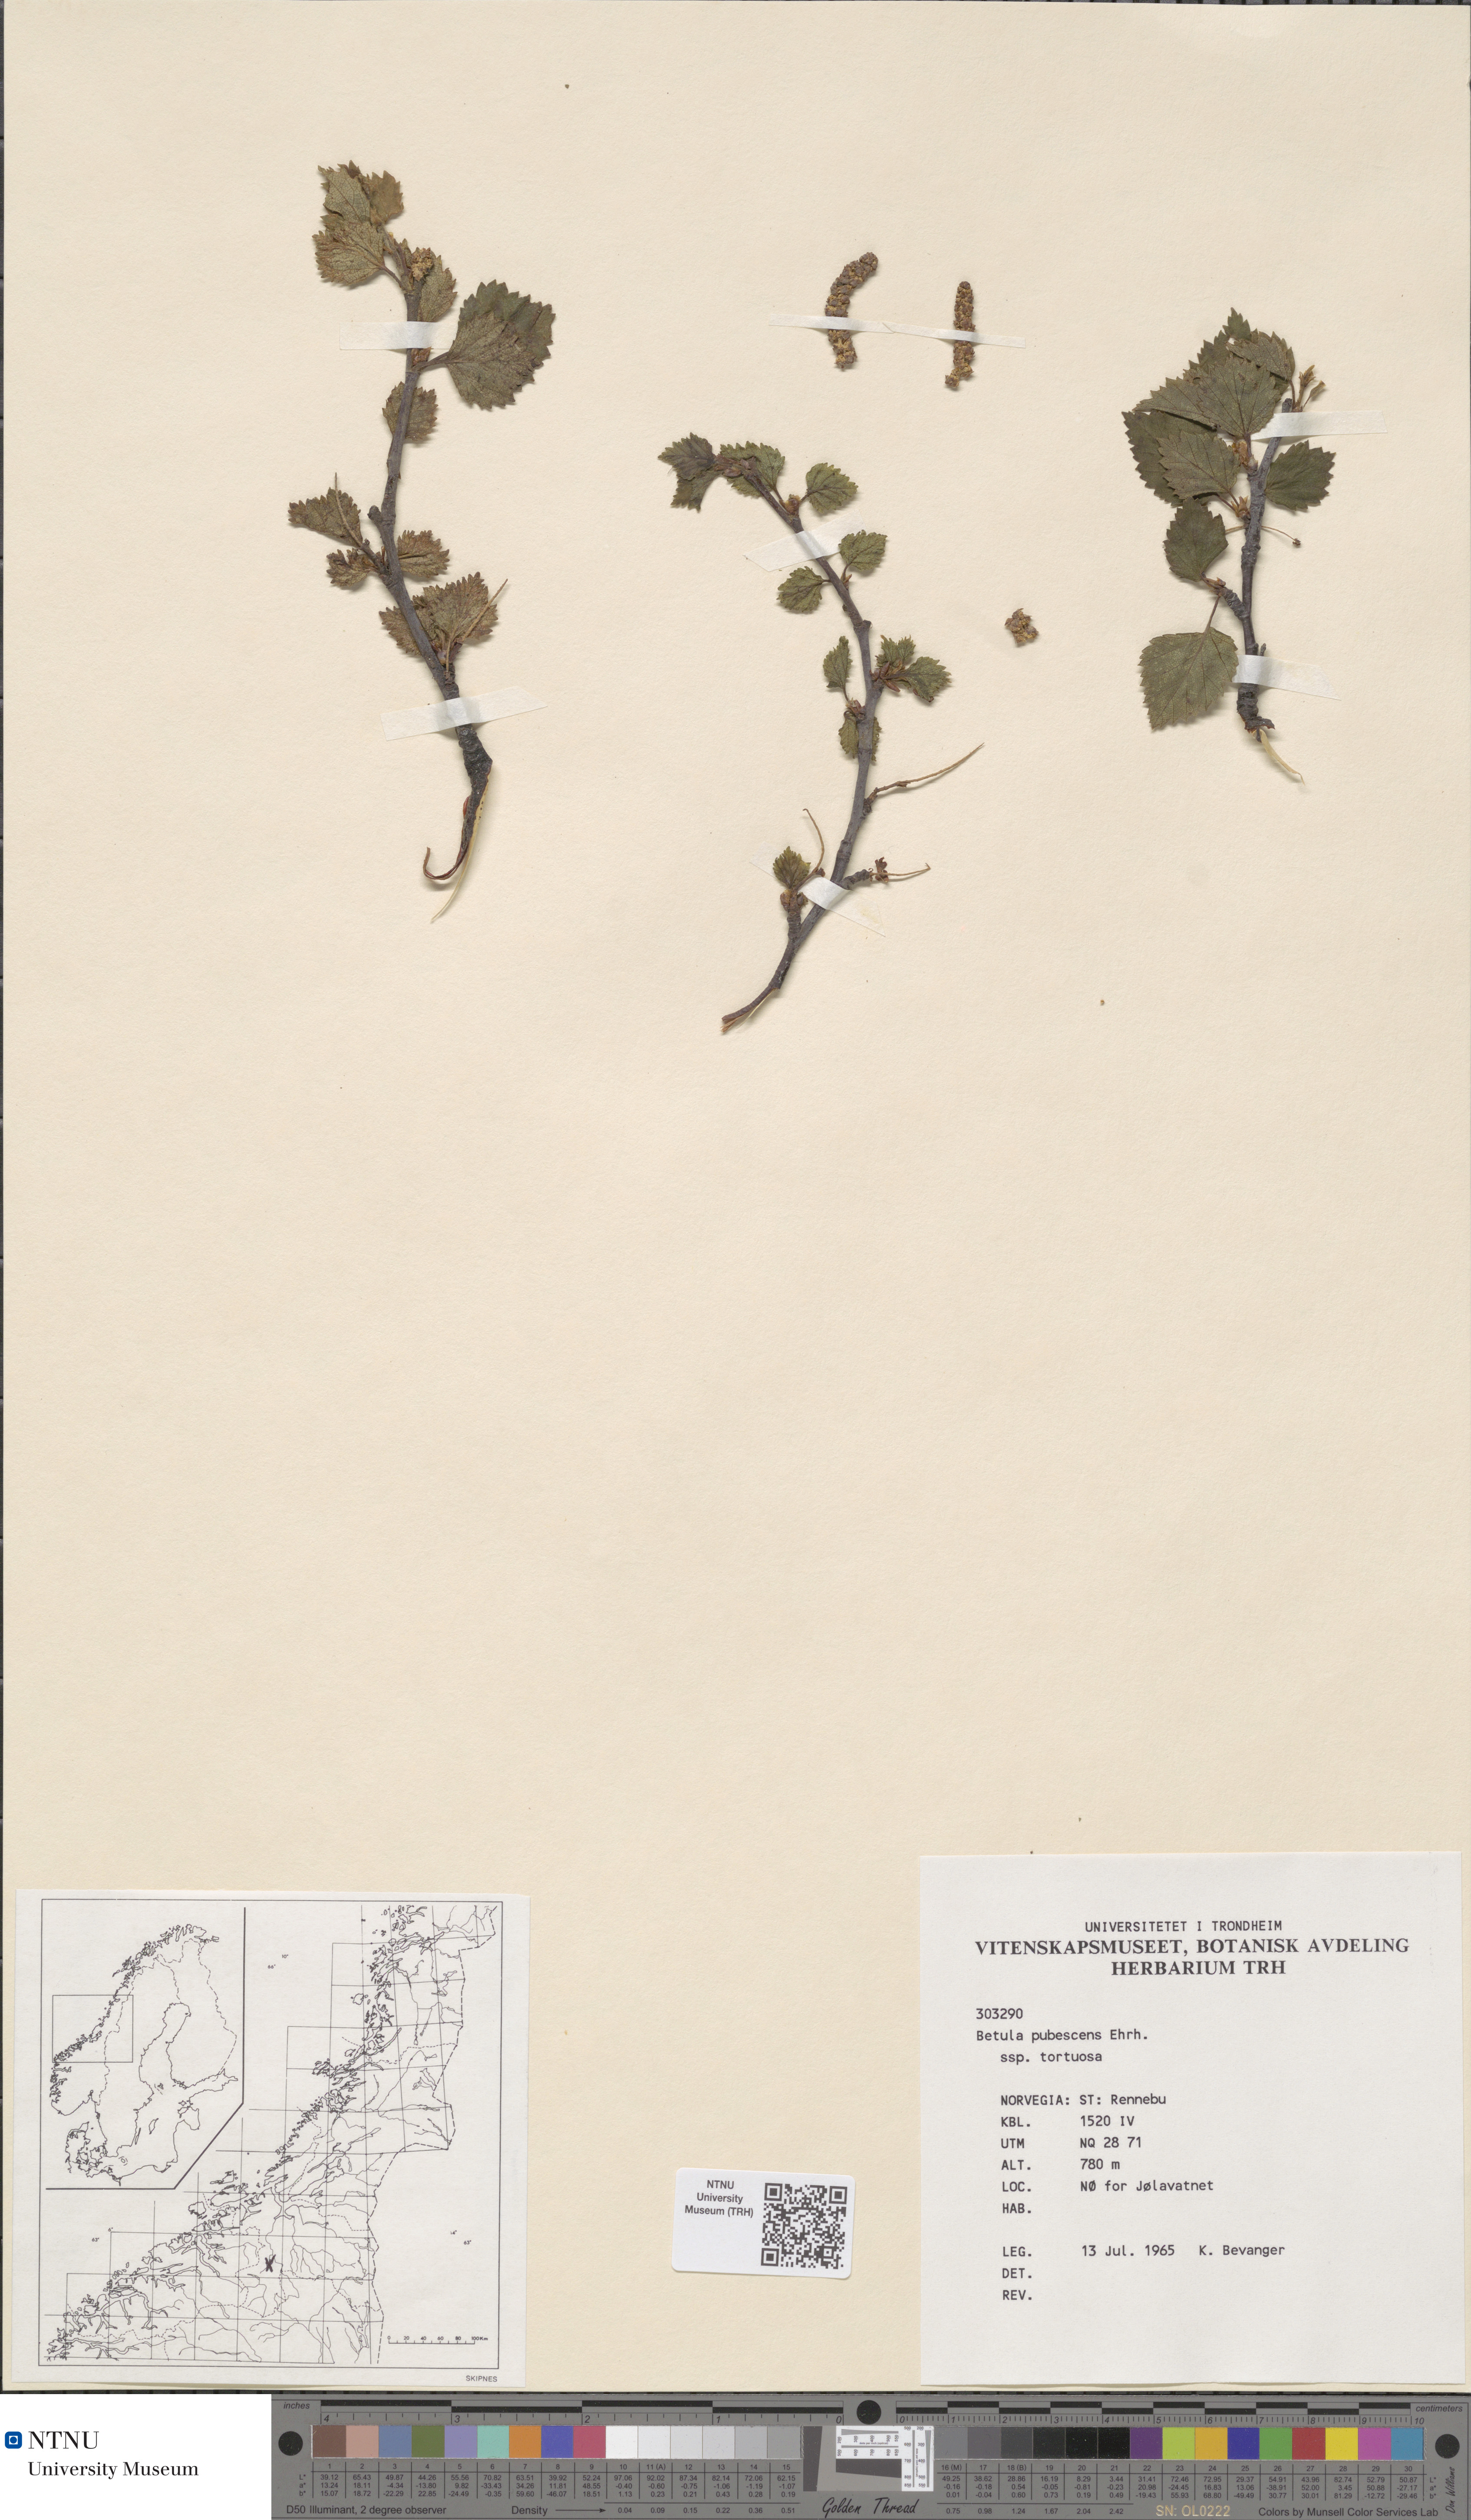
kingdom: Plantae
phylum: Tracheophyta
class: Magnoliopsida
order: Fagales
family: Betulaceae
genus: Betula
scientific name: Betula pubescens
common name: Downy birch
